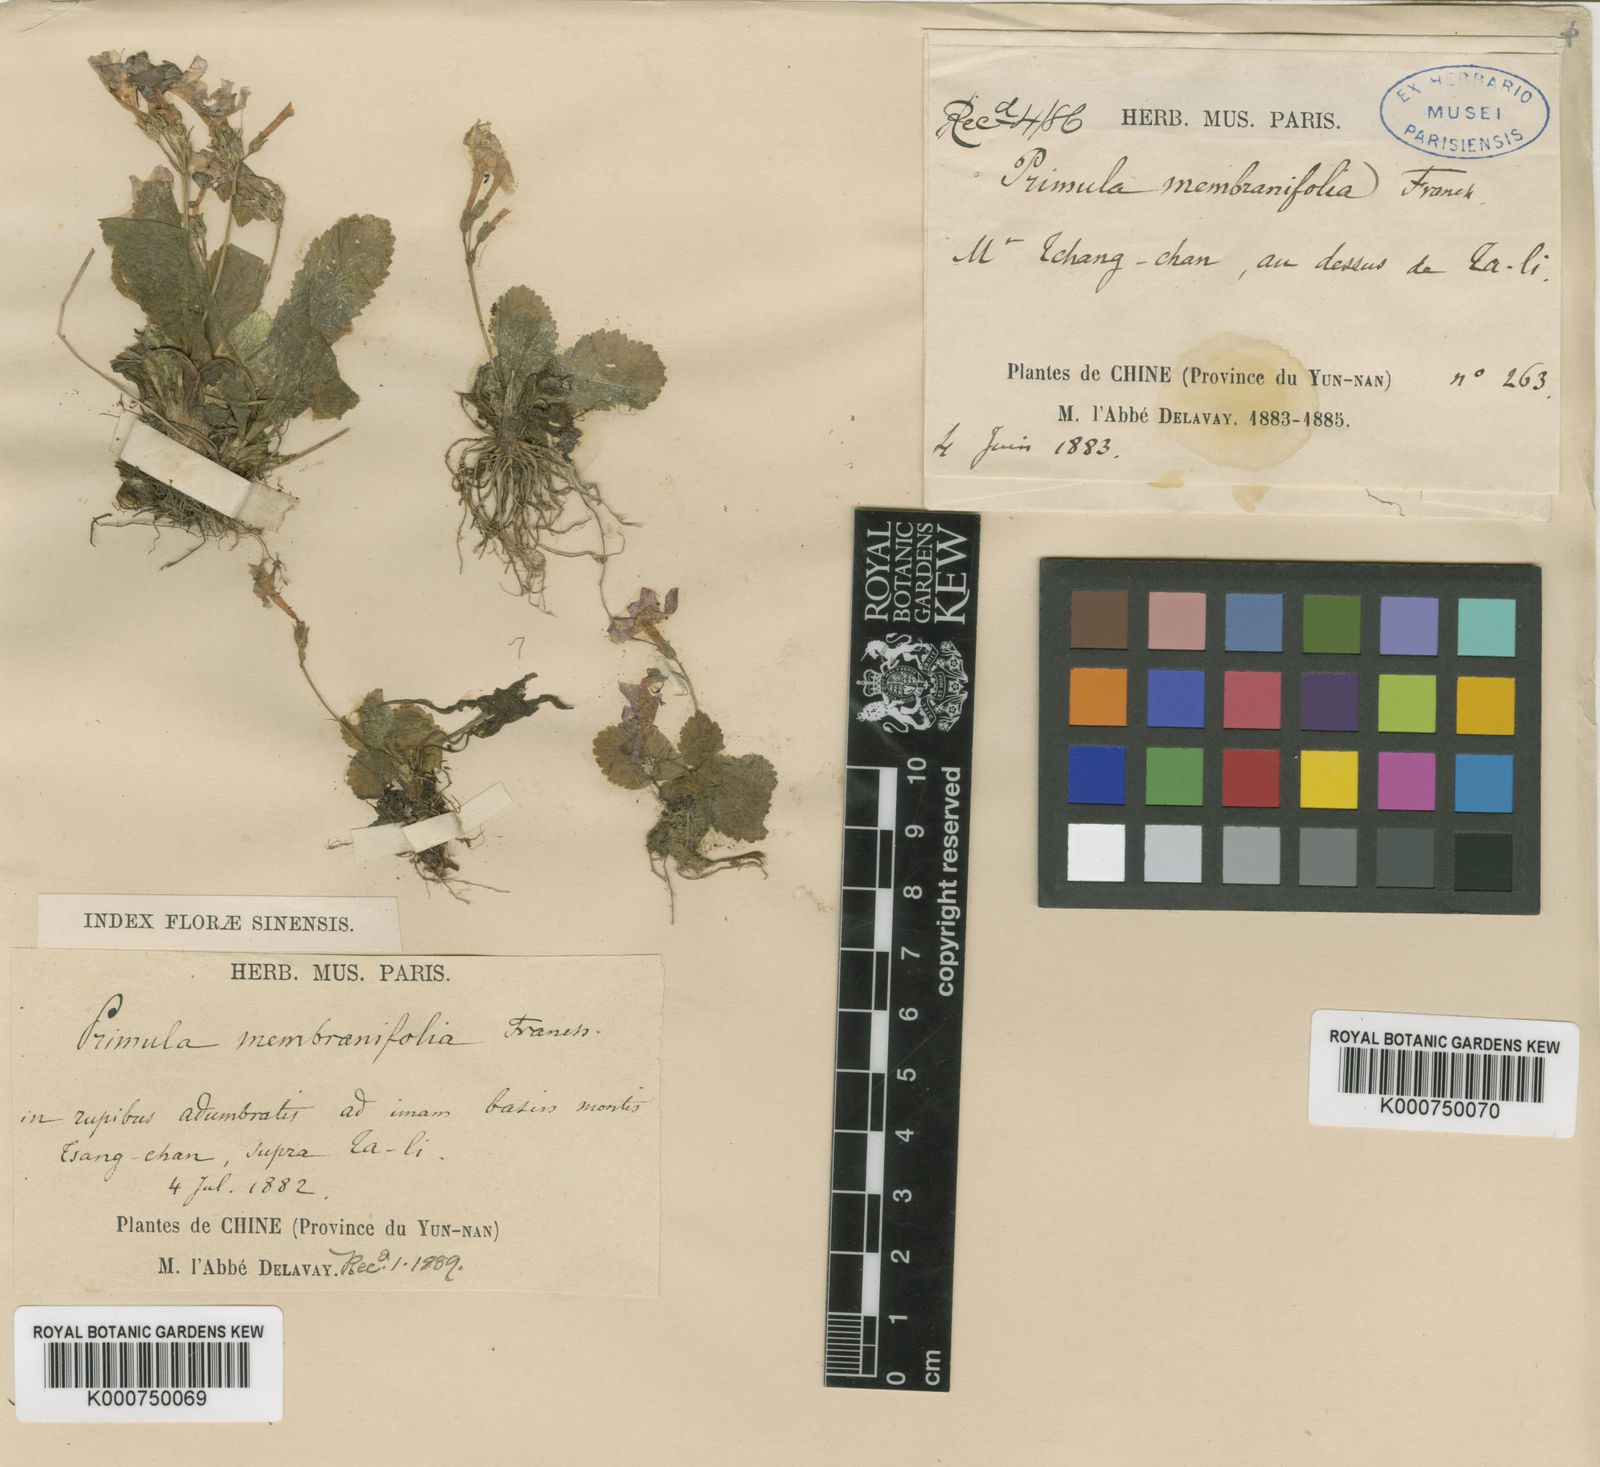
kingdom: Plantae
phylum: Tracheophyta
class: Magnoliopsida
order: Ericales
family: Primulaceae
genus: Primula
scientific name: Primula yunnanensis
